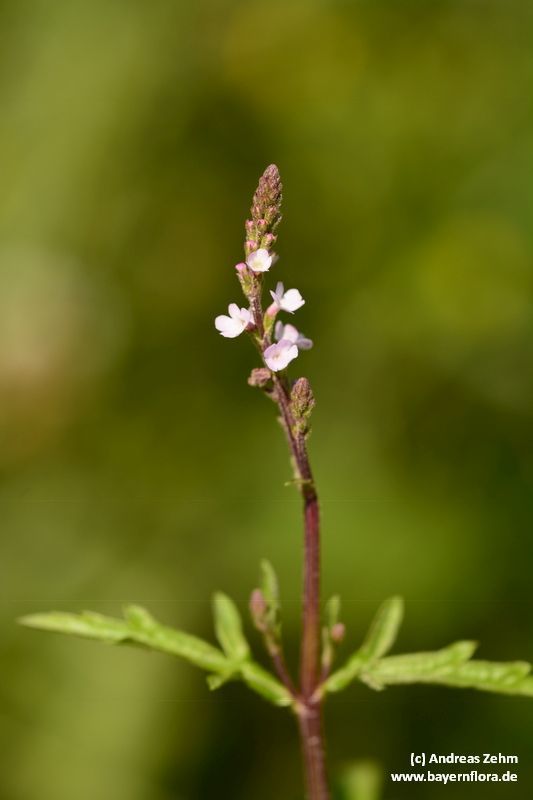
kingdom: Plantae
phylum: Tracheophyta
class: Magnoliopsida
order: Lamiales
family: Verbenaceae
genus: Verbena
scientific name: Verbena officinalis
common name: Vervain
